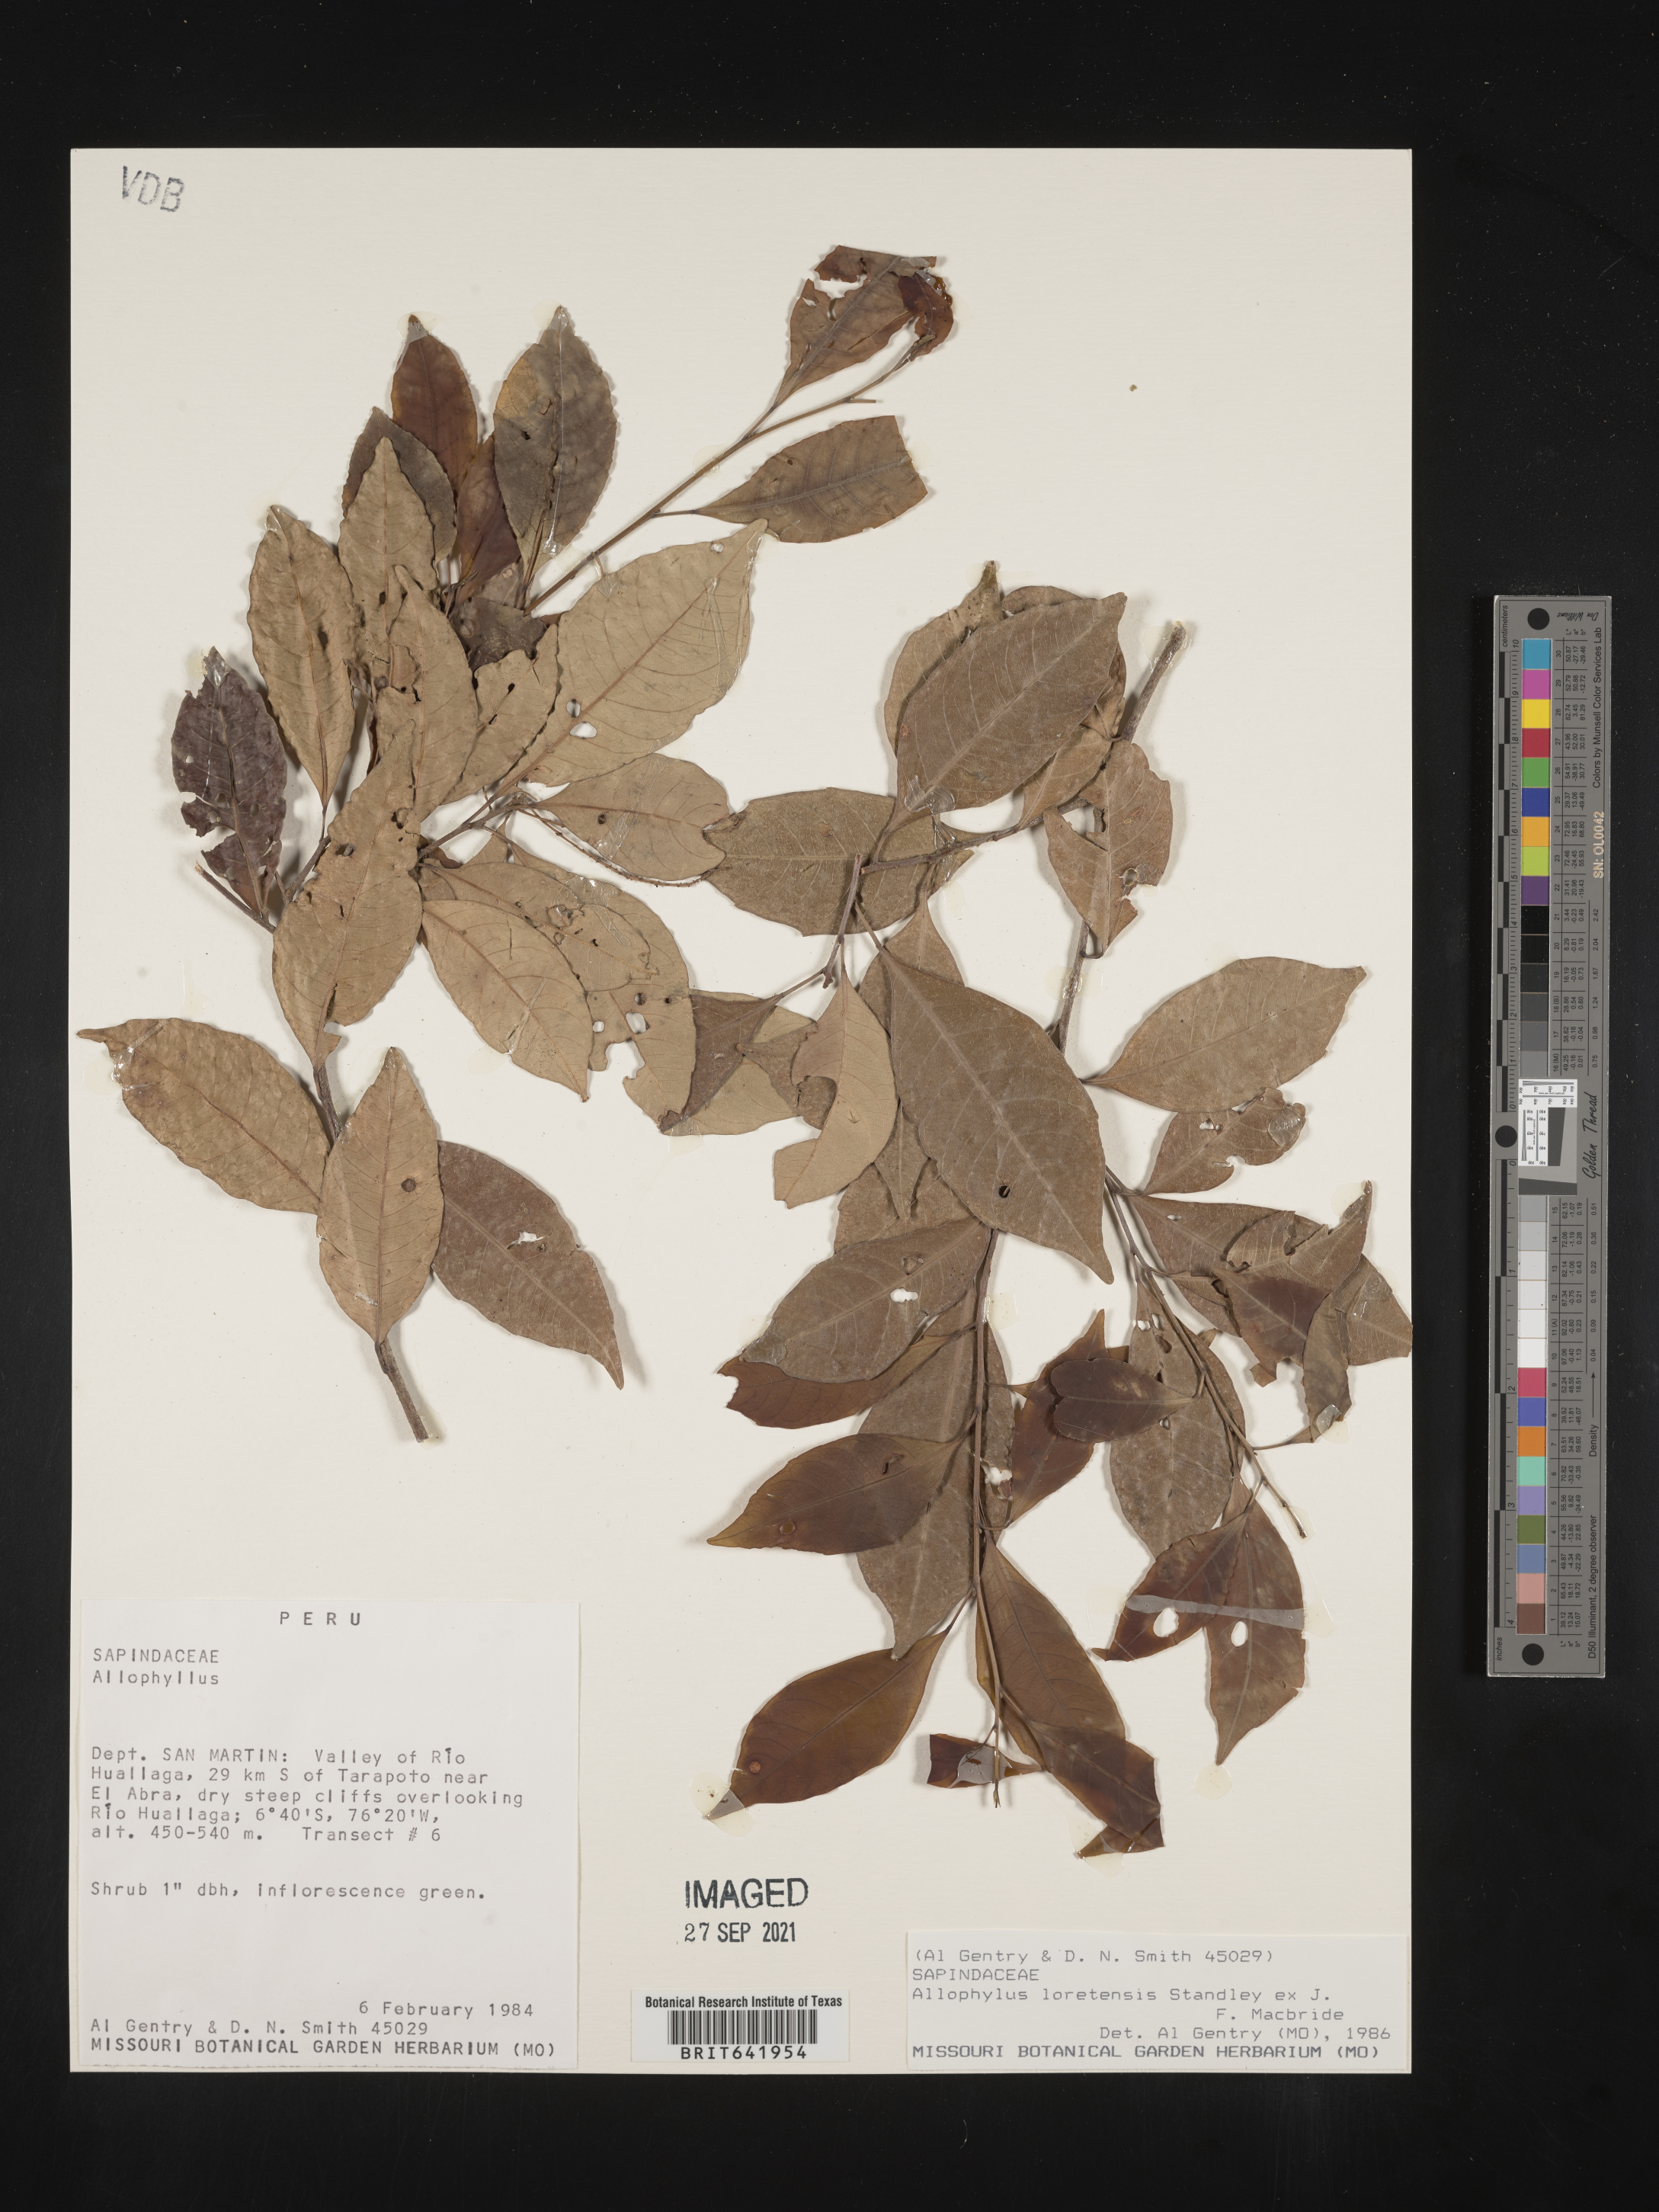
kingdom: Plantae
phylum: Tracheophyta
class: Magnoliopsida
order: Sapindales
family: Sapindaceae
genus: Allophylus
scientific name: Allophylus
